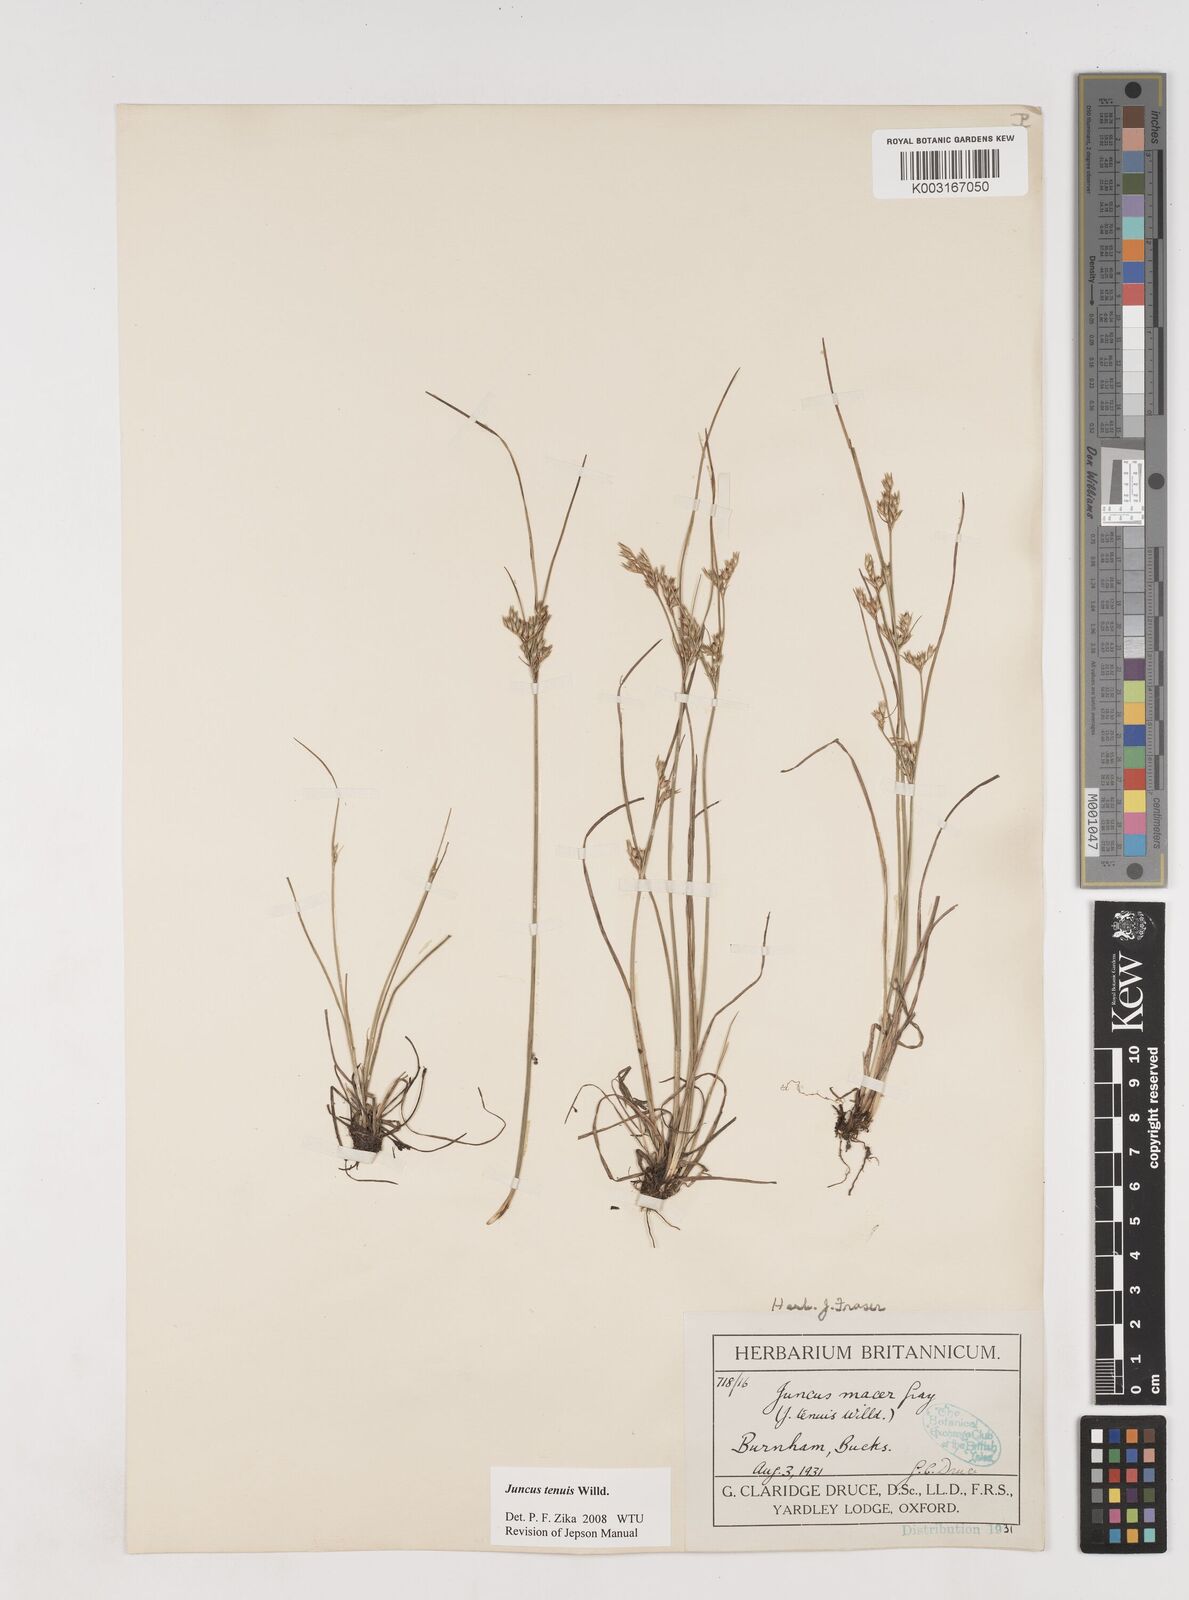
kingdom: Plantae
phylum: Tracheophyta
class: Liliopsida
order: Poales
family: Juncaceae
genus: Juncus
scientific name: Juncus tenuis
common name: Slender rush
